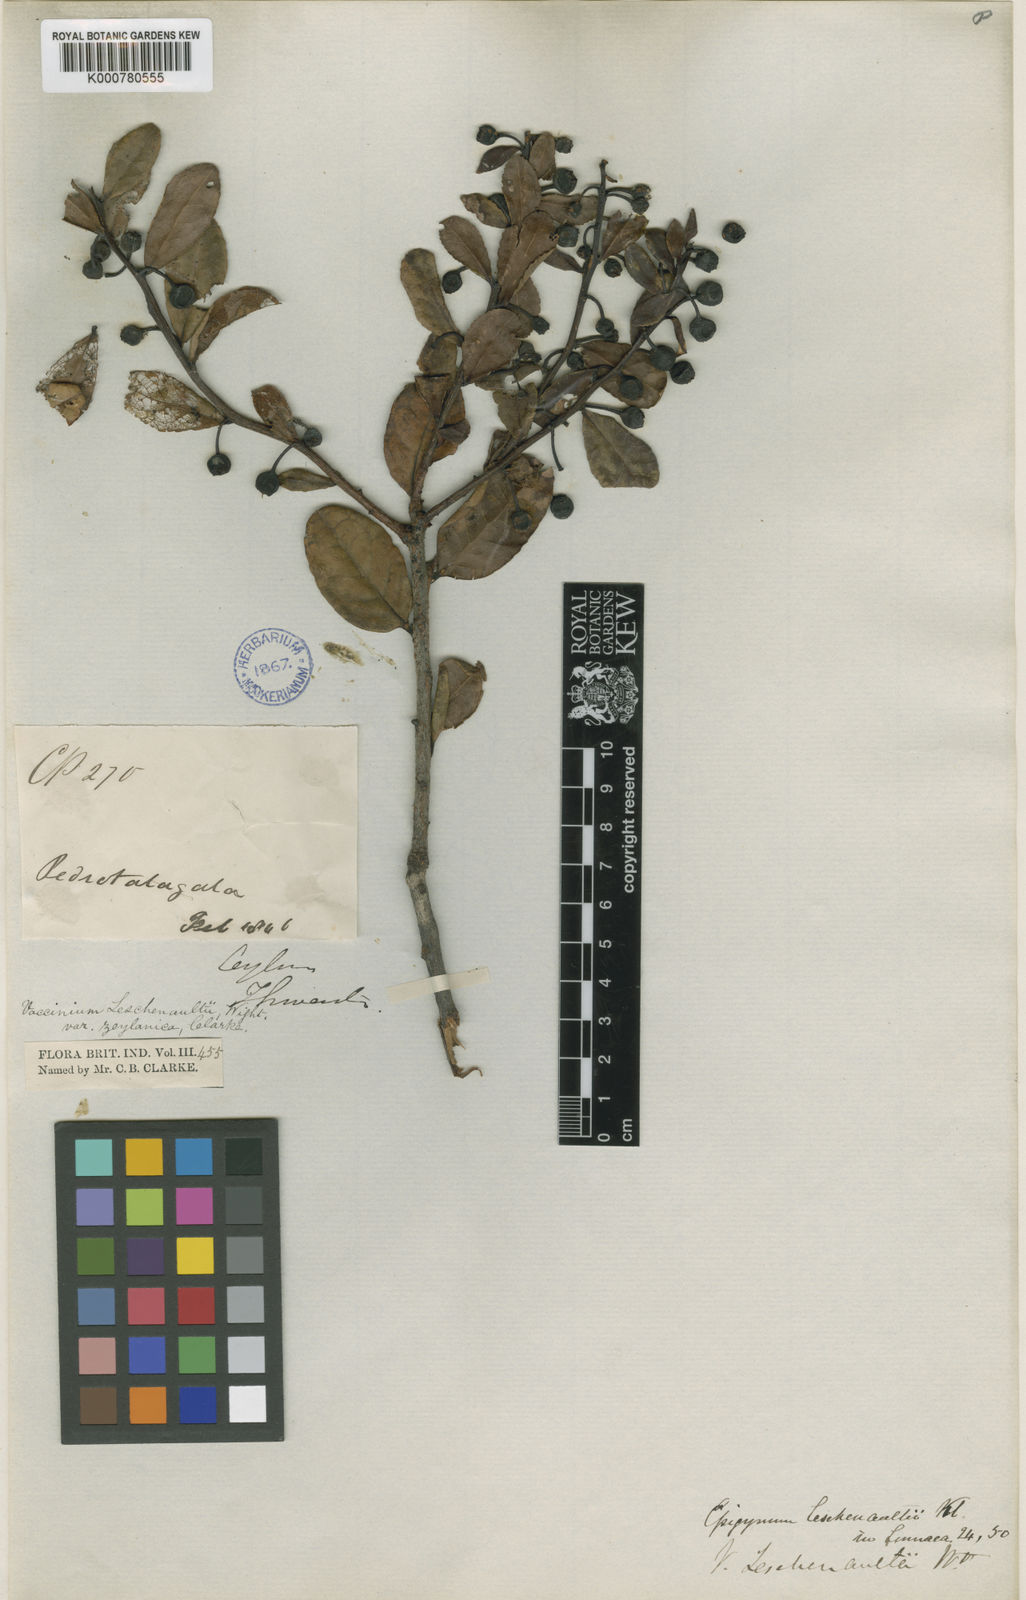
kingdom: Plantae
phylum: Tracheophyta
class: Magnoliopsida
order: Ericales
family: Ericaceae
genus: Vaccinium
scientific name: Vaccinium symplocifolium
